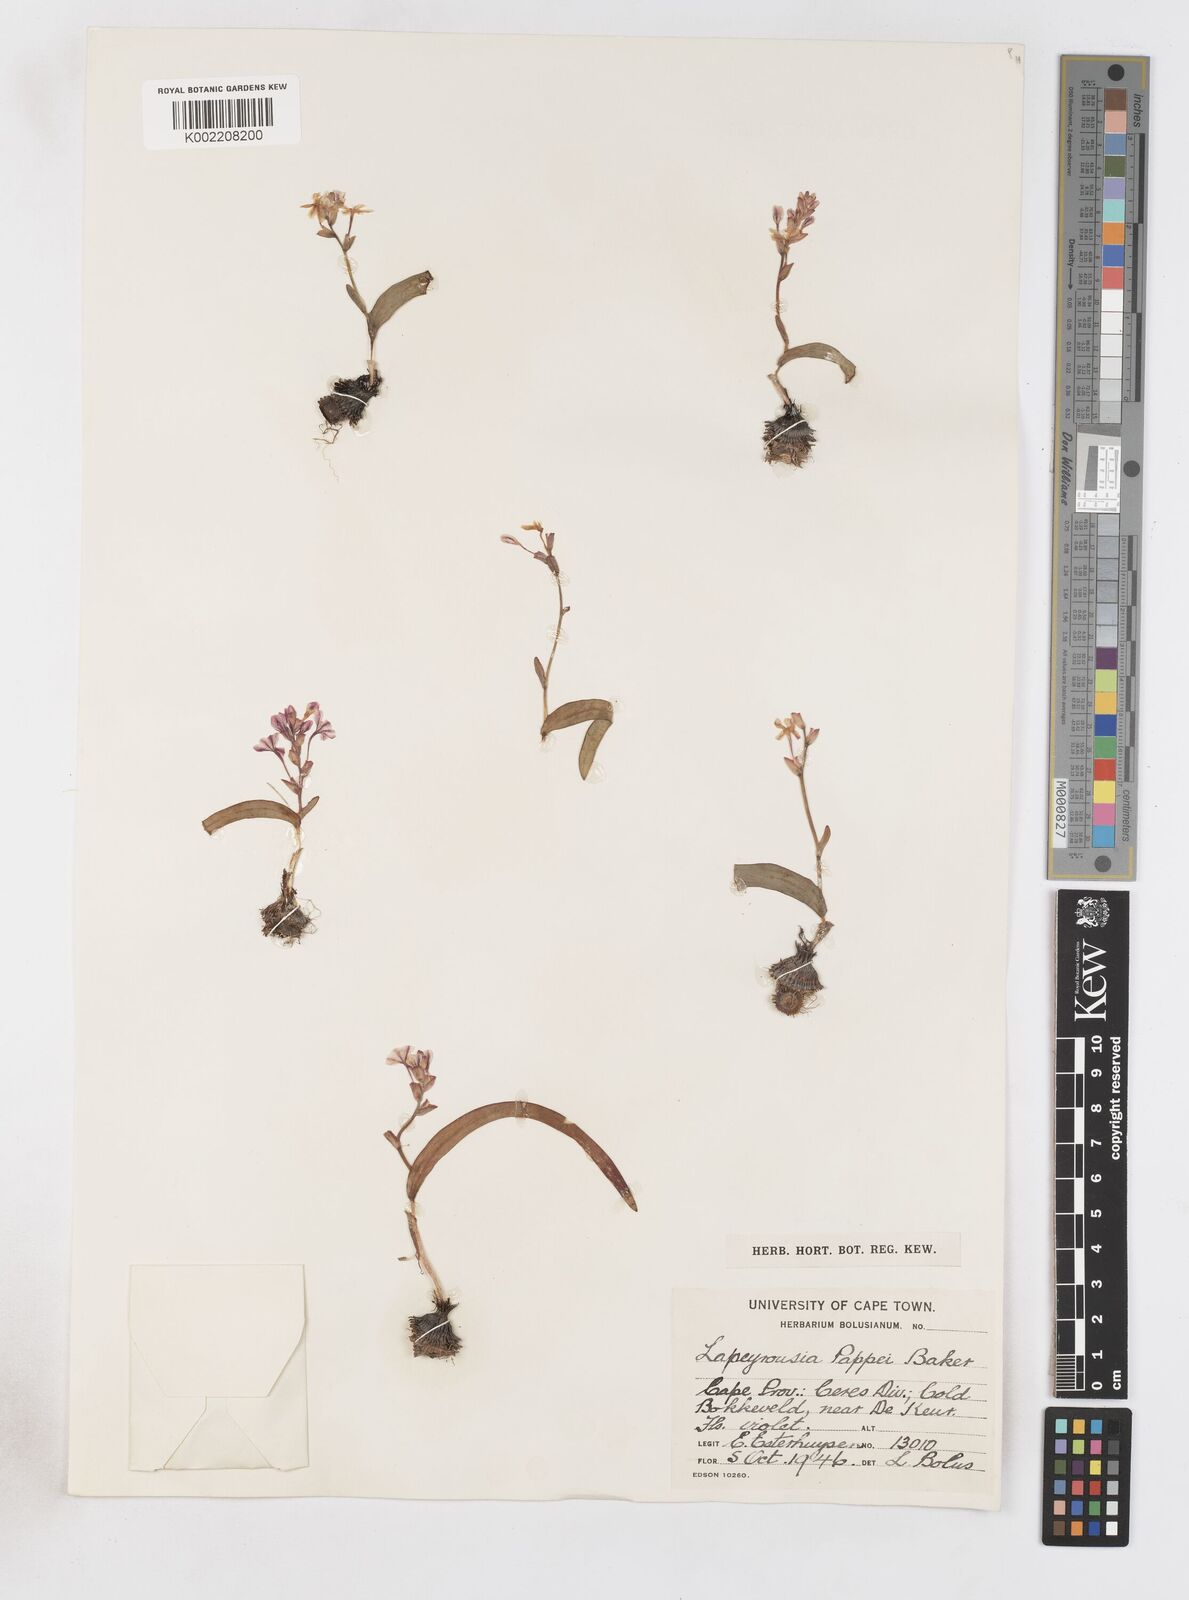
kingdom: Plantae
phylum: Tracheophyta
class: Liliopsida
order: Asparagales
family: Iridaceae
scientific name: Iridaceae
